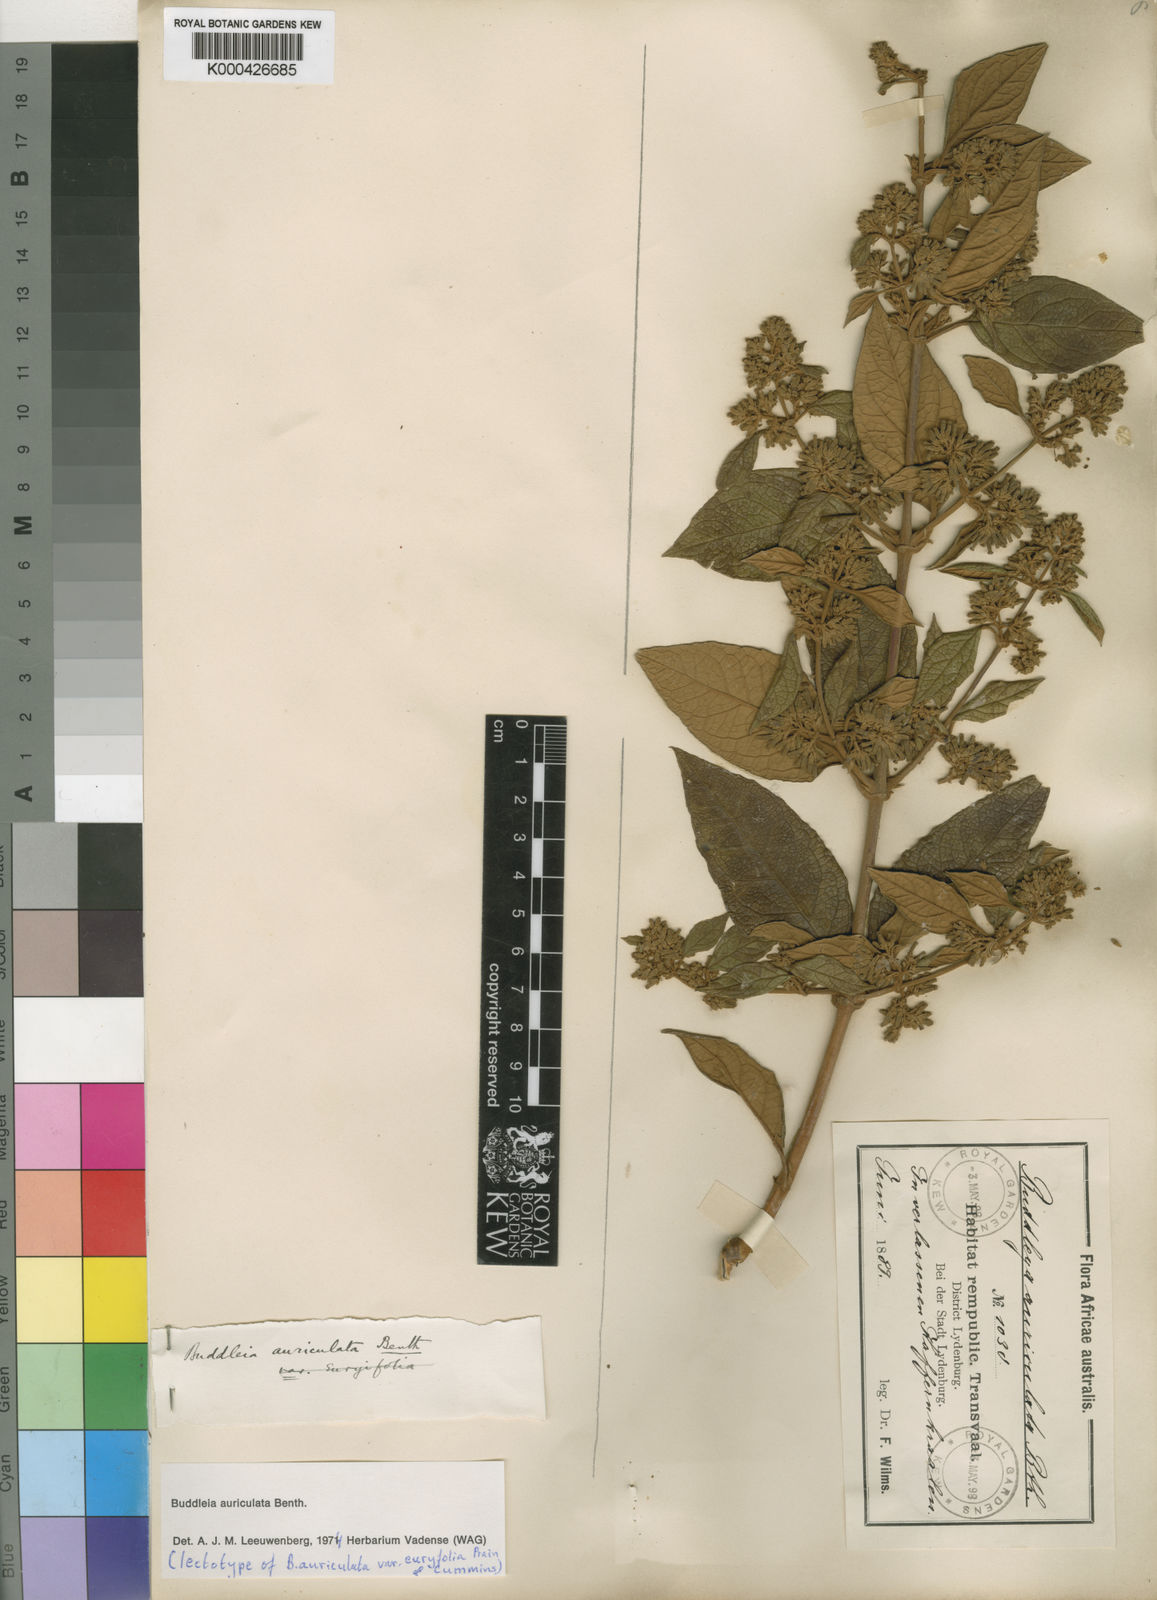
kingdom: Plantae
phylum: Tracheophyta
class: Magnoliopsida
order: Lamiales
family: Scrophulariaceae
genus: Buddleja
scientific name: Buddleja auriculata
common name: Weeping sagewood
